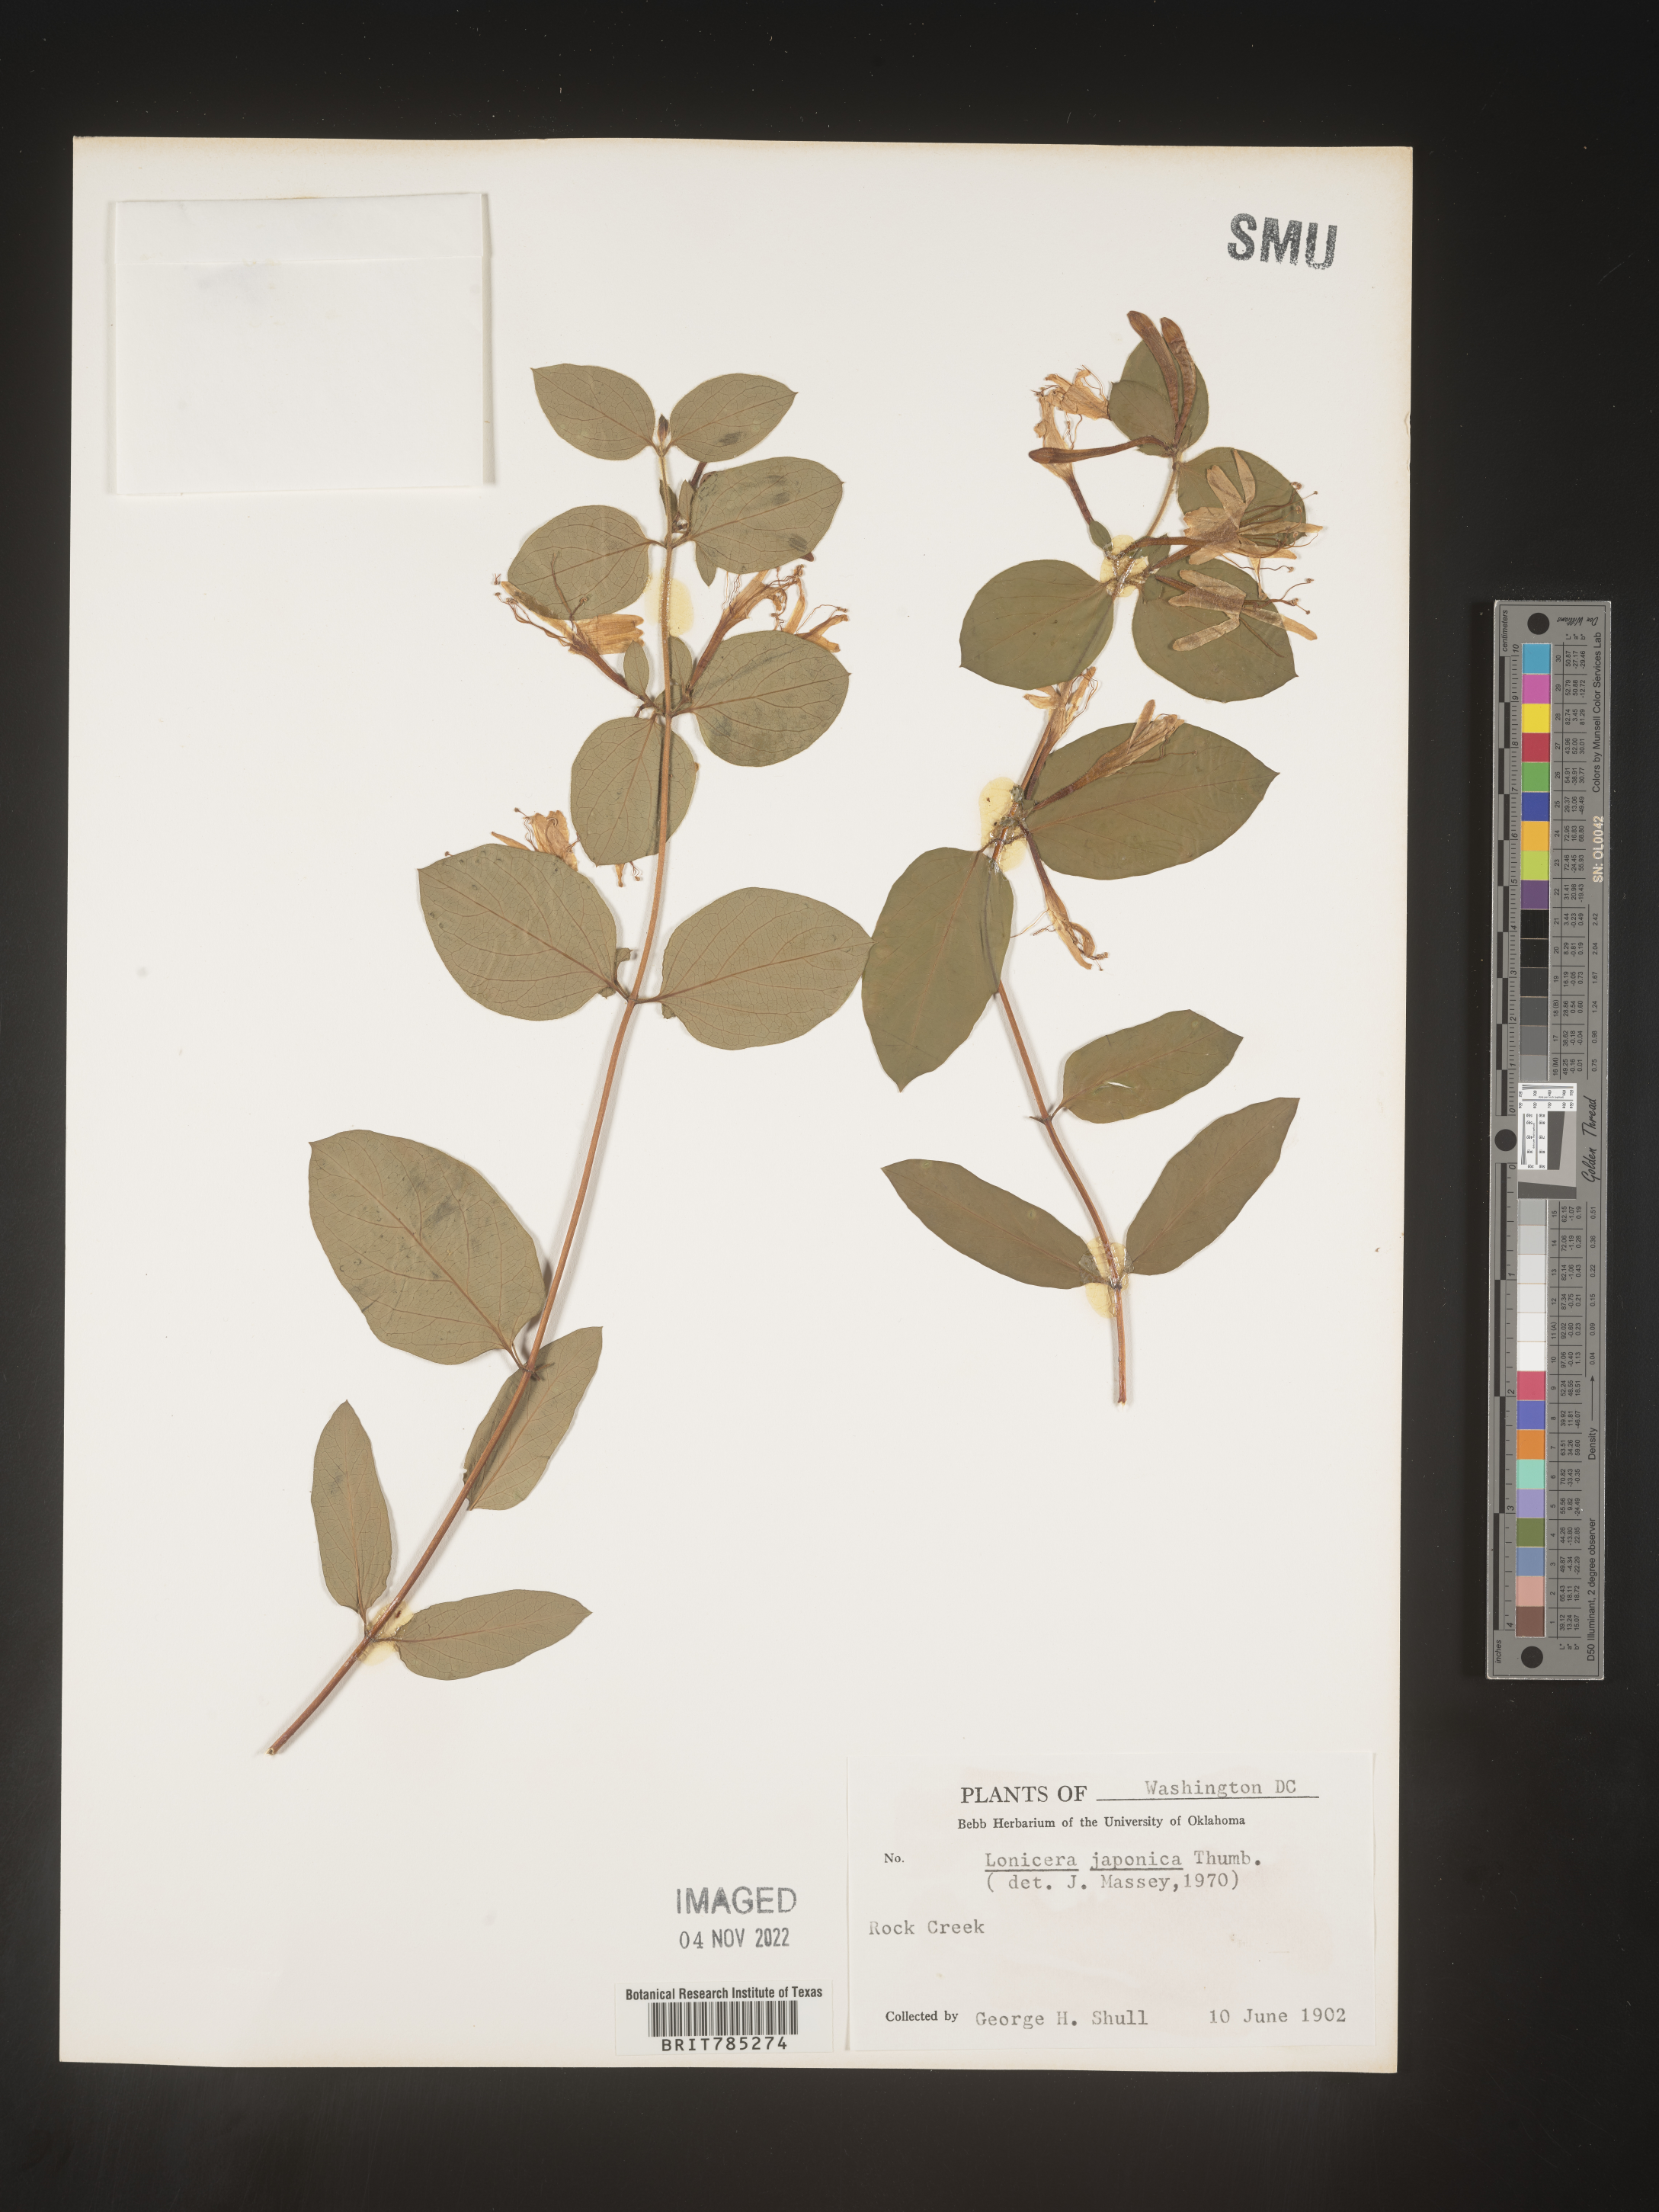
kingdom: Plantae
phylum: Tracheophyta
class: Magnoliopsida
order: Dipsacales
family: Caprifoliaceae
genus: Lonicera
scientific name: Lonicera japonica
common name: Japanese honeysuckle
